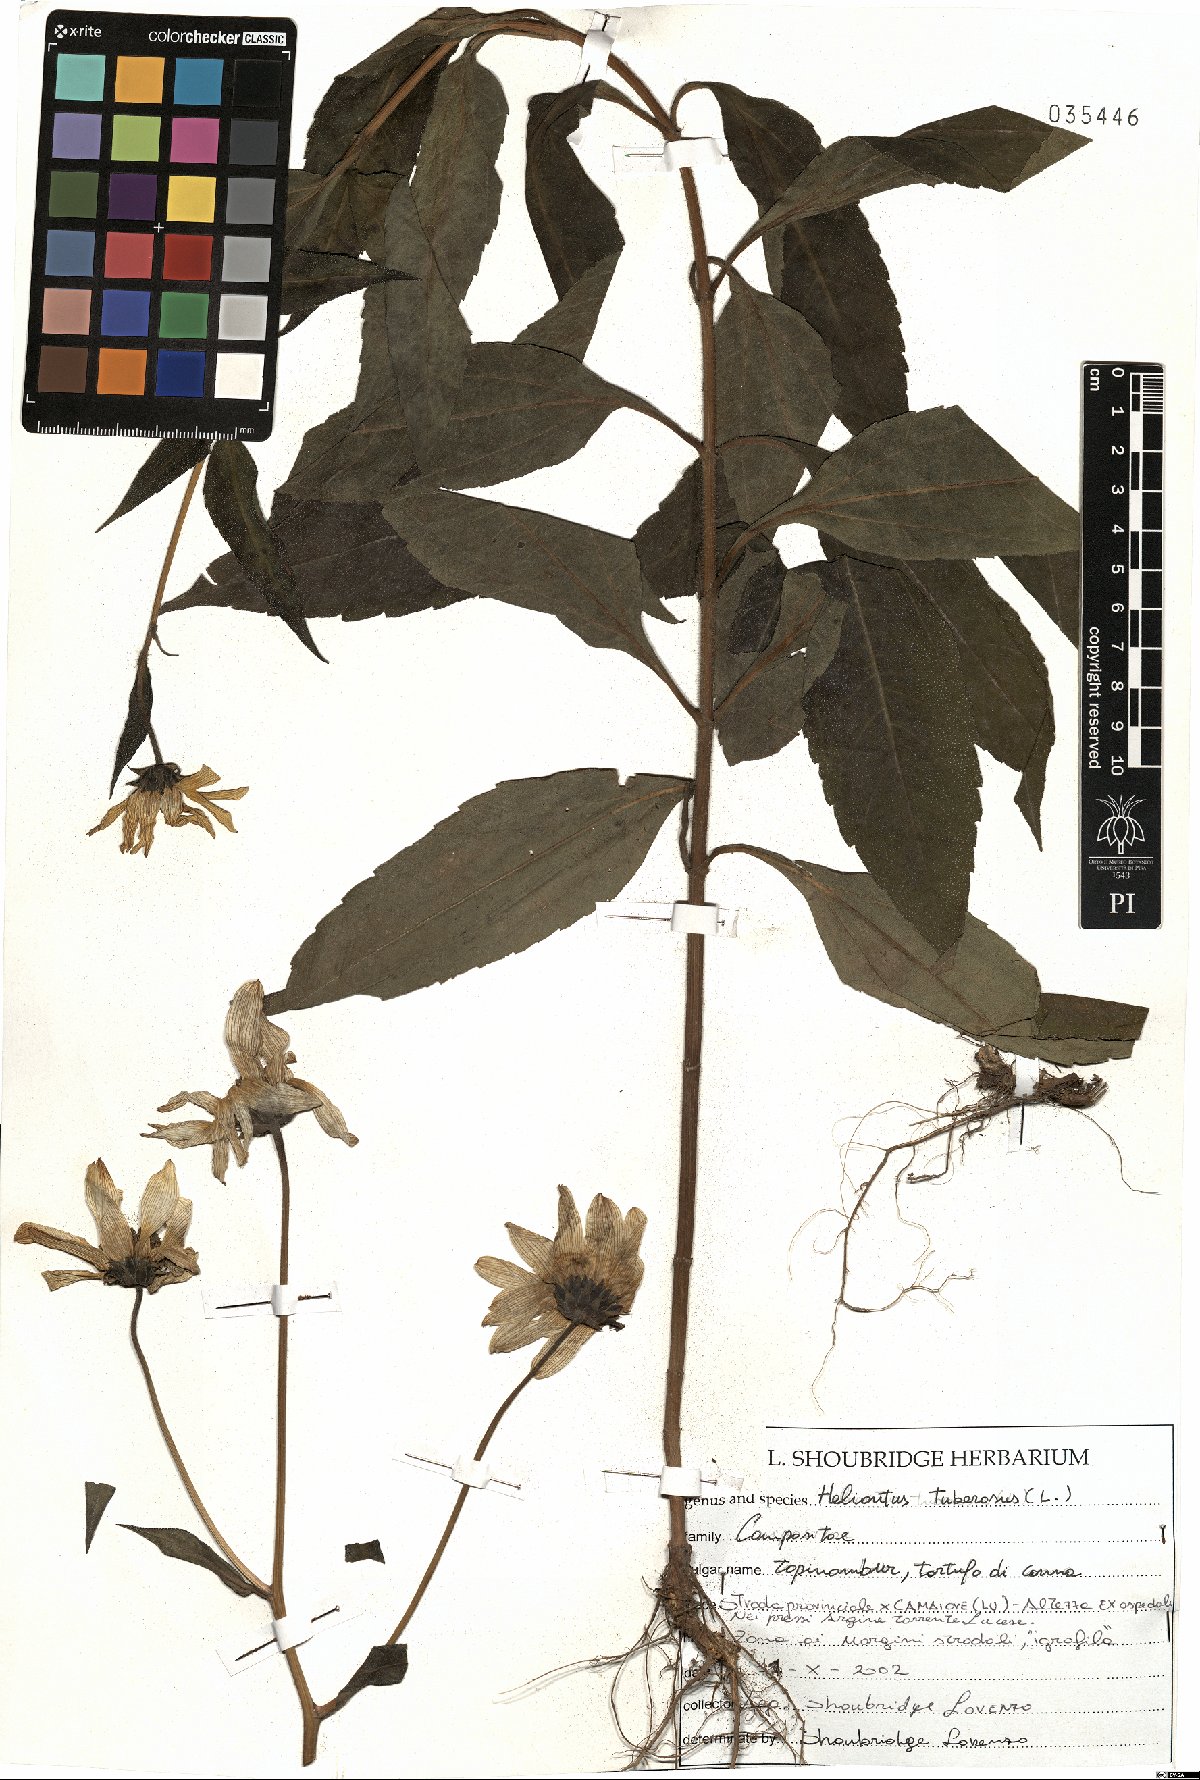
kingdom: Plantae
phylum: Tracheophyta
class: Magnoliopsida
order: Asterales
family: Asteraceae
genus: Helianthus
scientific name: Helianthus tuberosus
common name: Jerusalem artichoke
